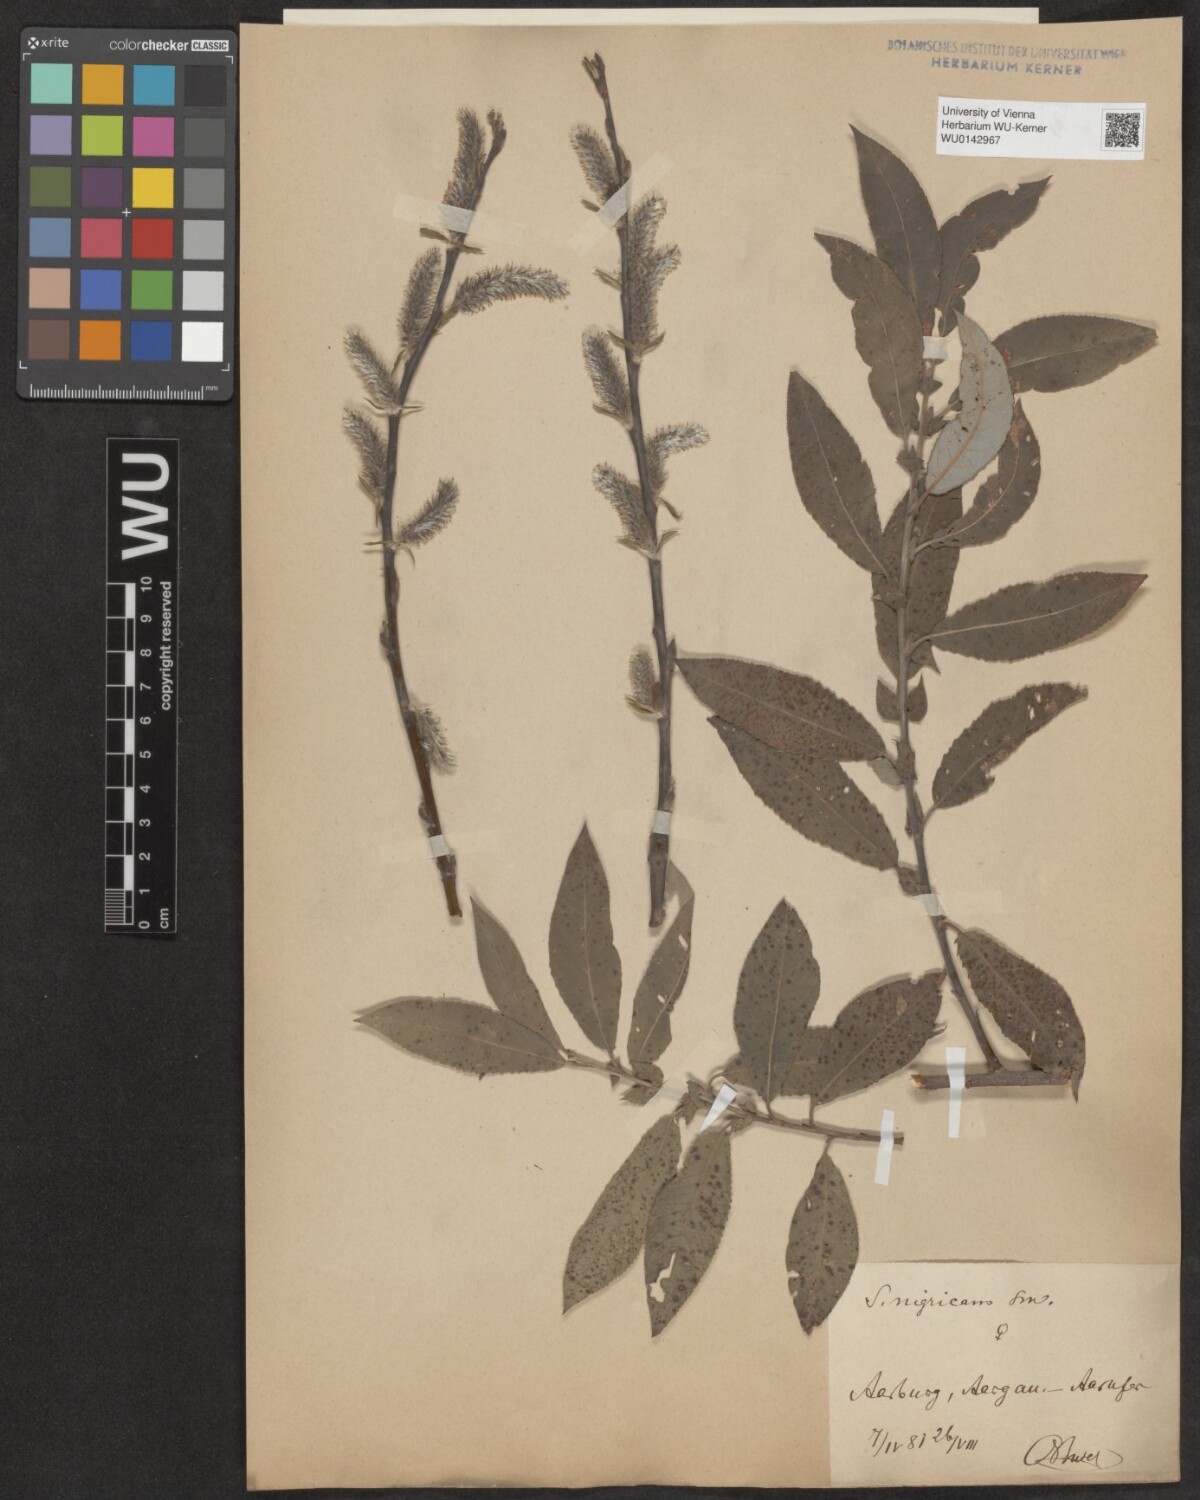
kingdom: Plantae
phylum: Tracheophyta
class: Magnoliopsida
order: Malpighiales
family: Salicaceae
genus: Salix
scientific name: Salix myrsinifolia
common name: Dark-leaved willow
